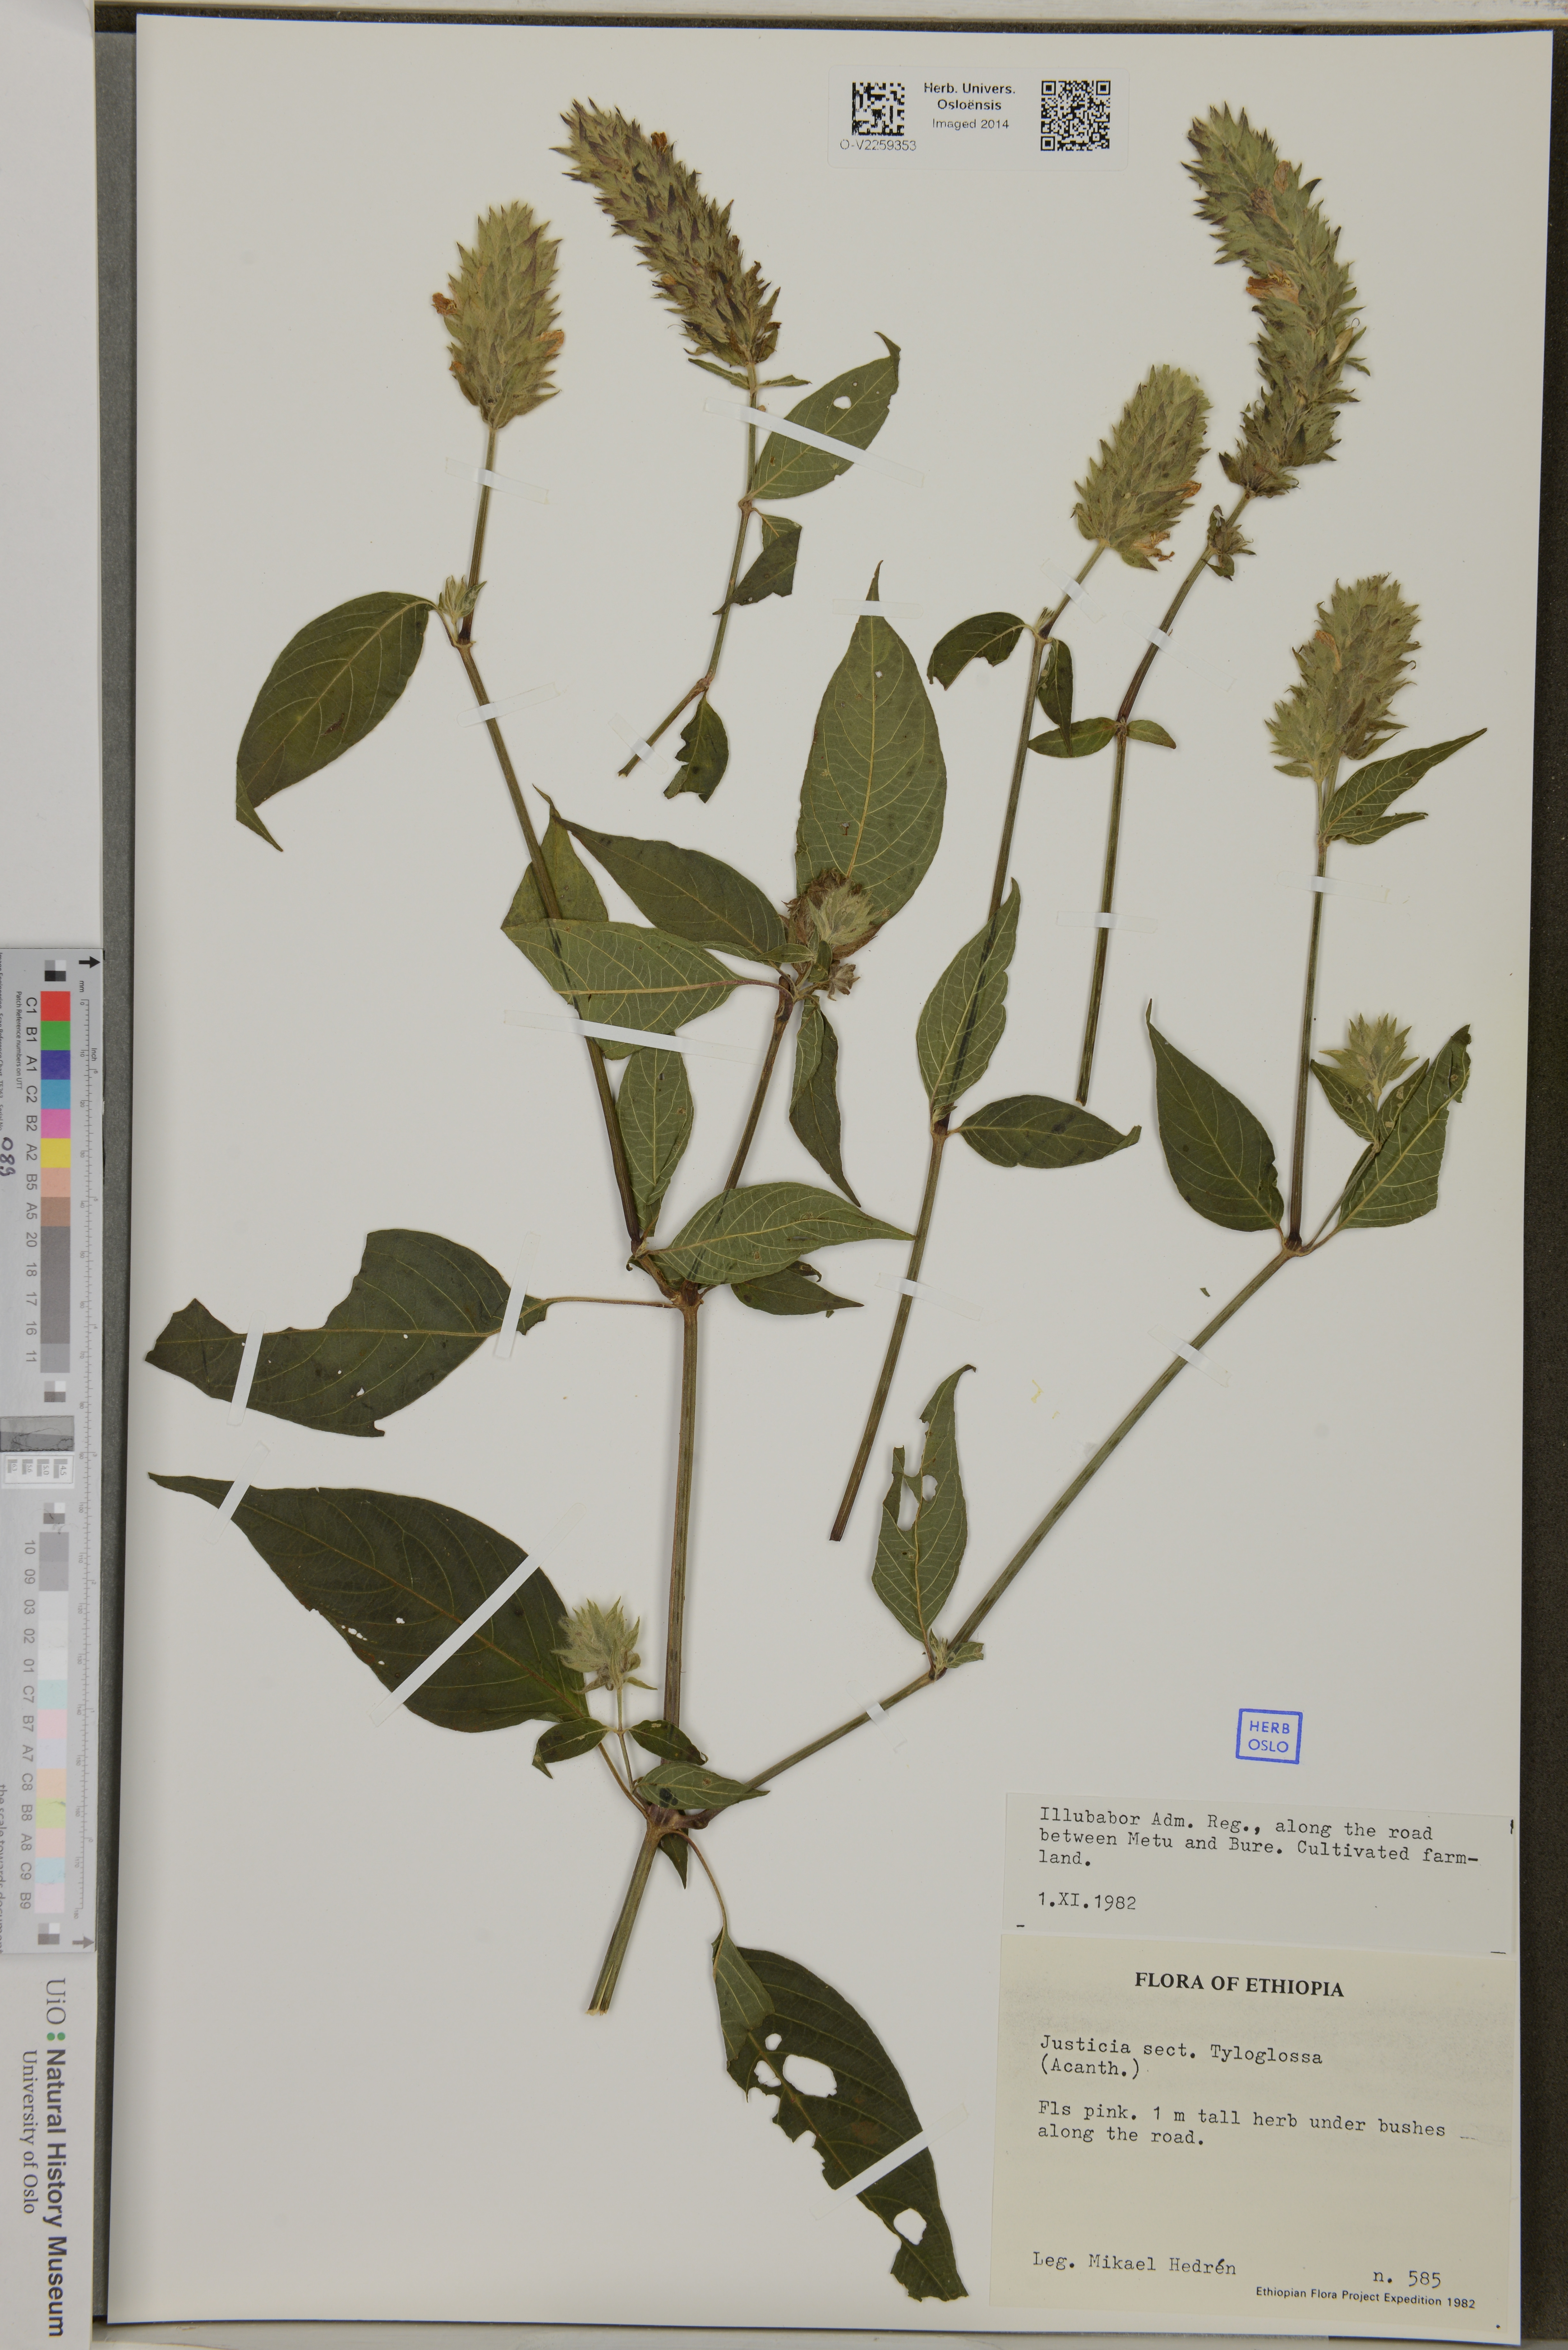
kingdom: Plantae
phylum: Tracheophyta
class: Magnoliopsida
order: Lamiales
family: Acanthaceae
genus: Justicia
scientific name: Justicia
